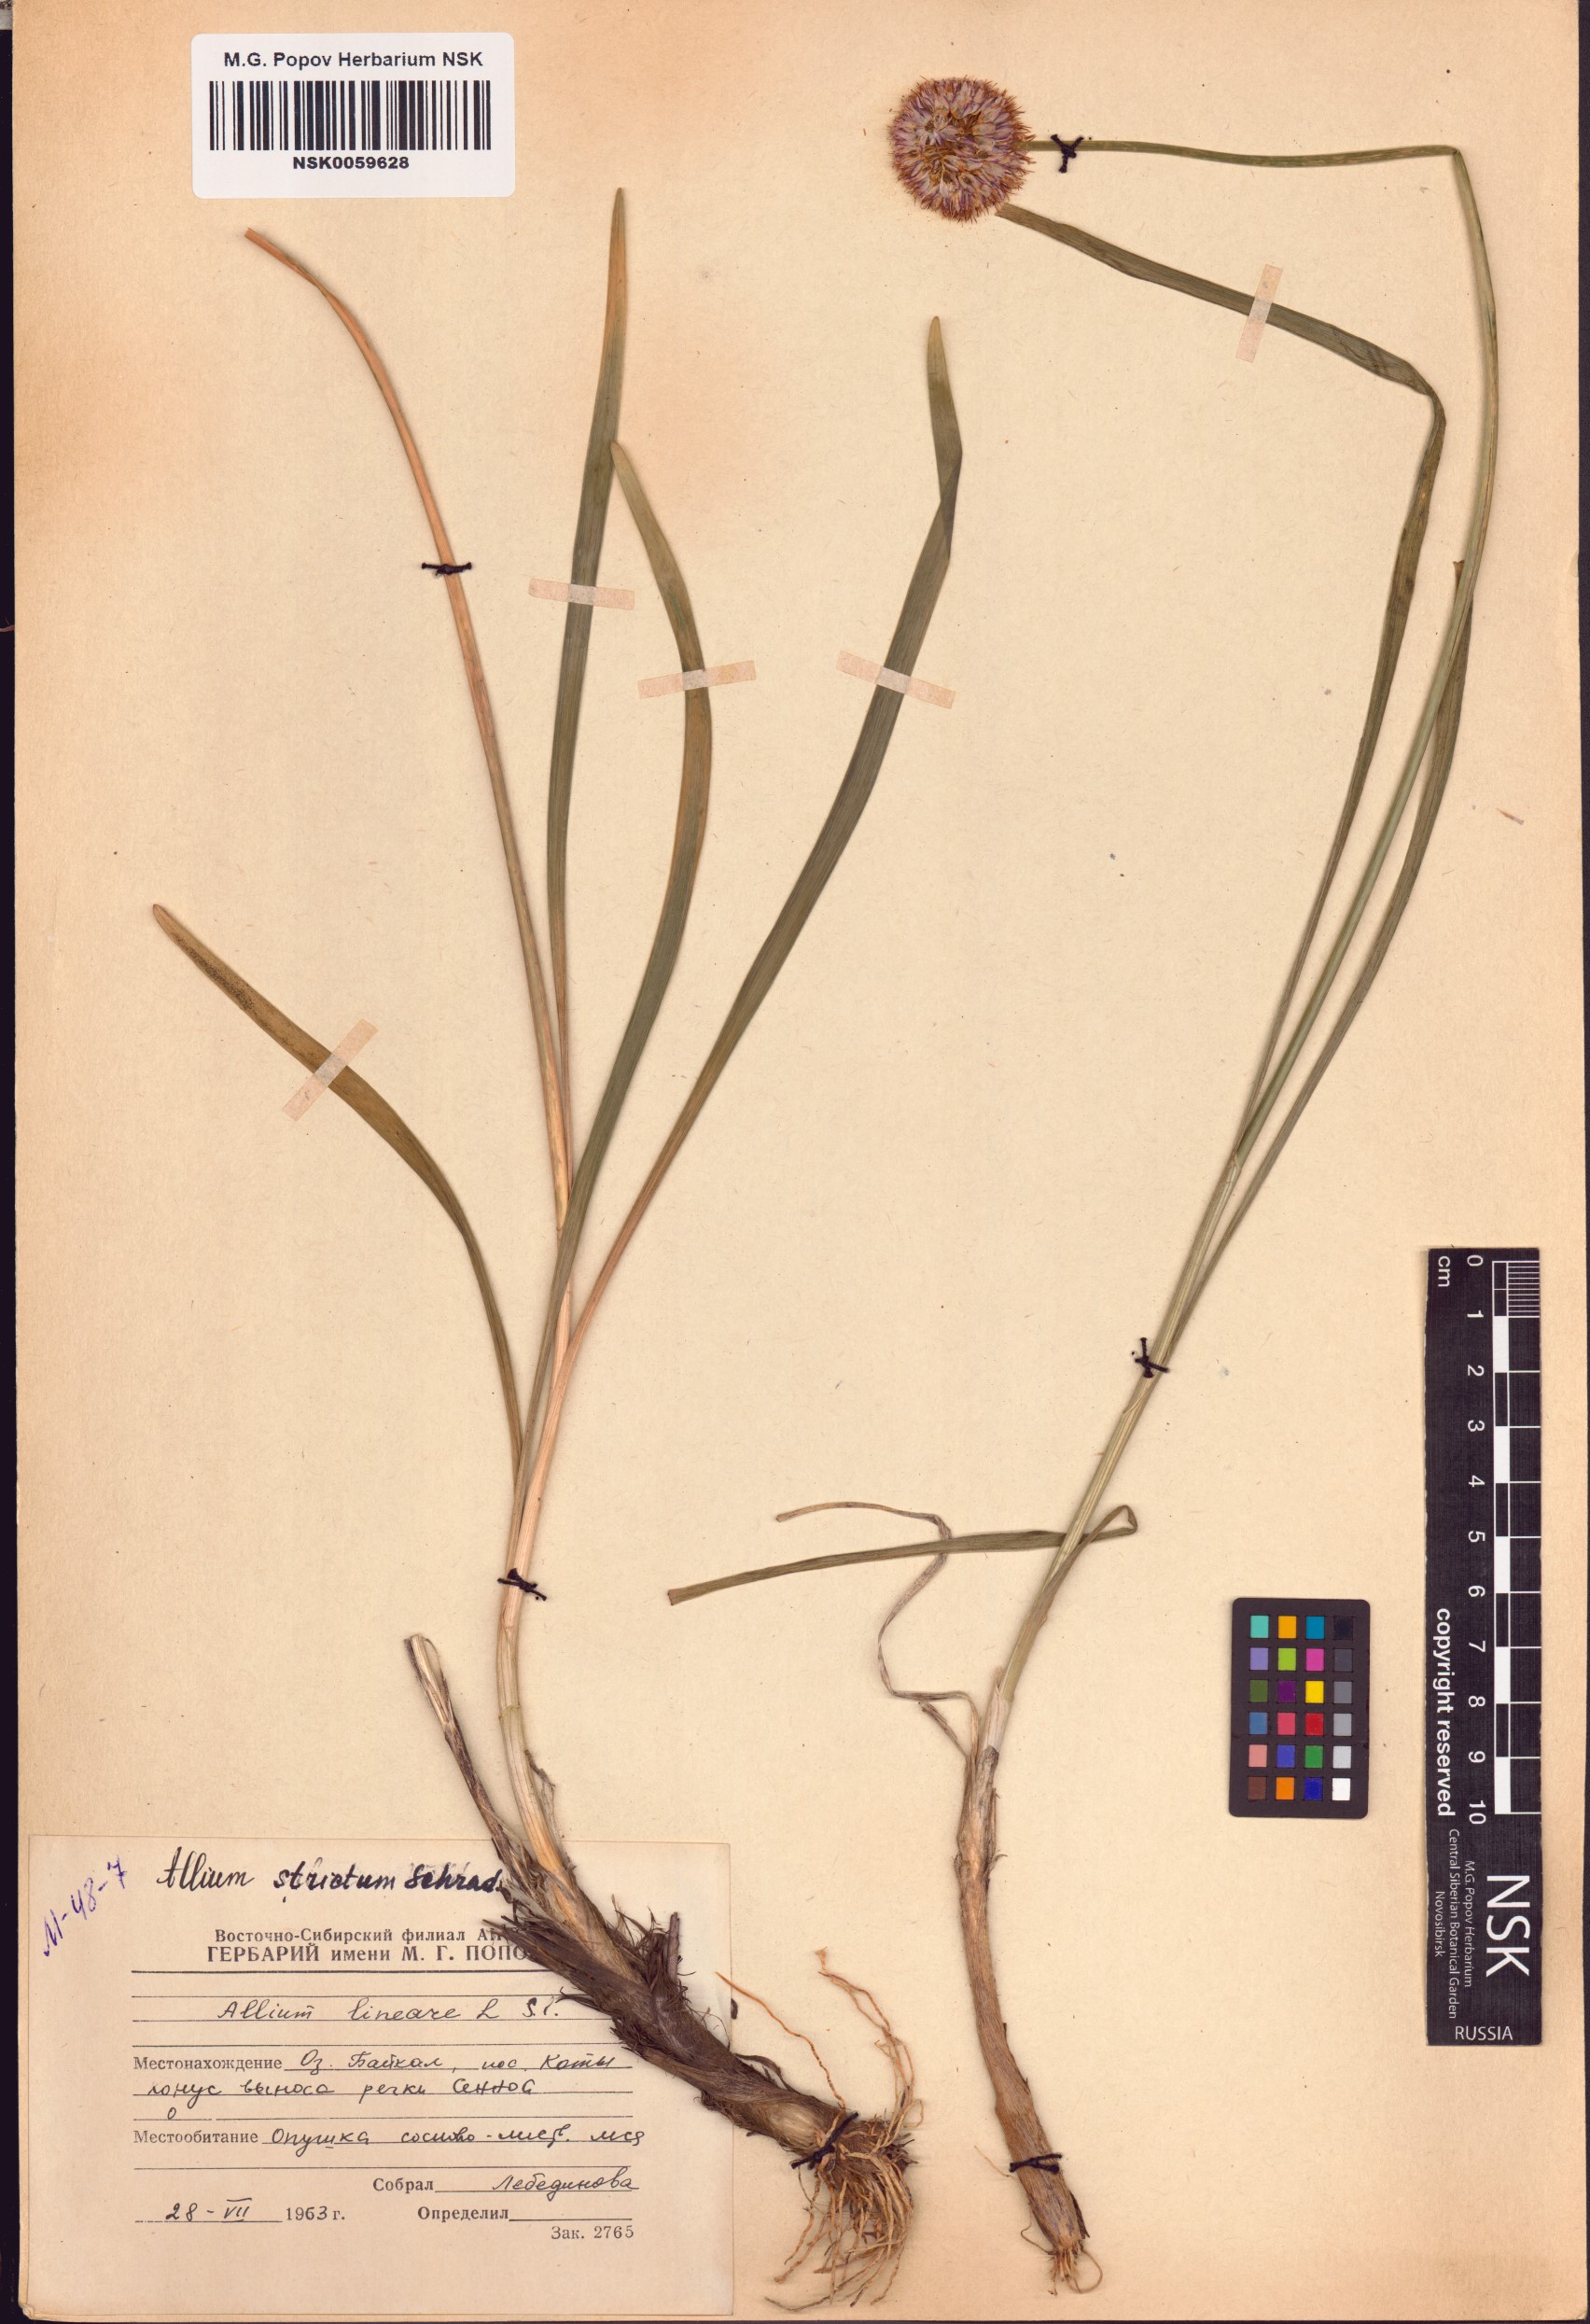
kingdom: Plantae
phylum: Tracheophyta
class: Liliopsida
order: Asparagales
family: Amaryllidaceae
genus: Allium
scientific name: Allium strictum
